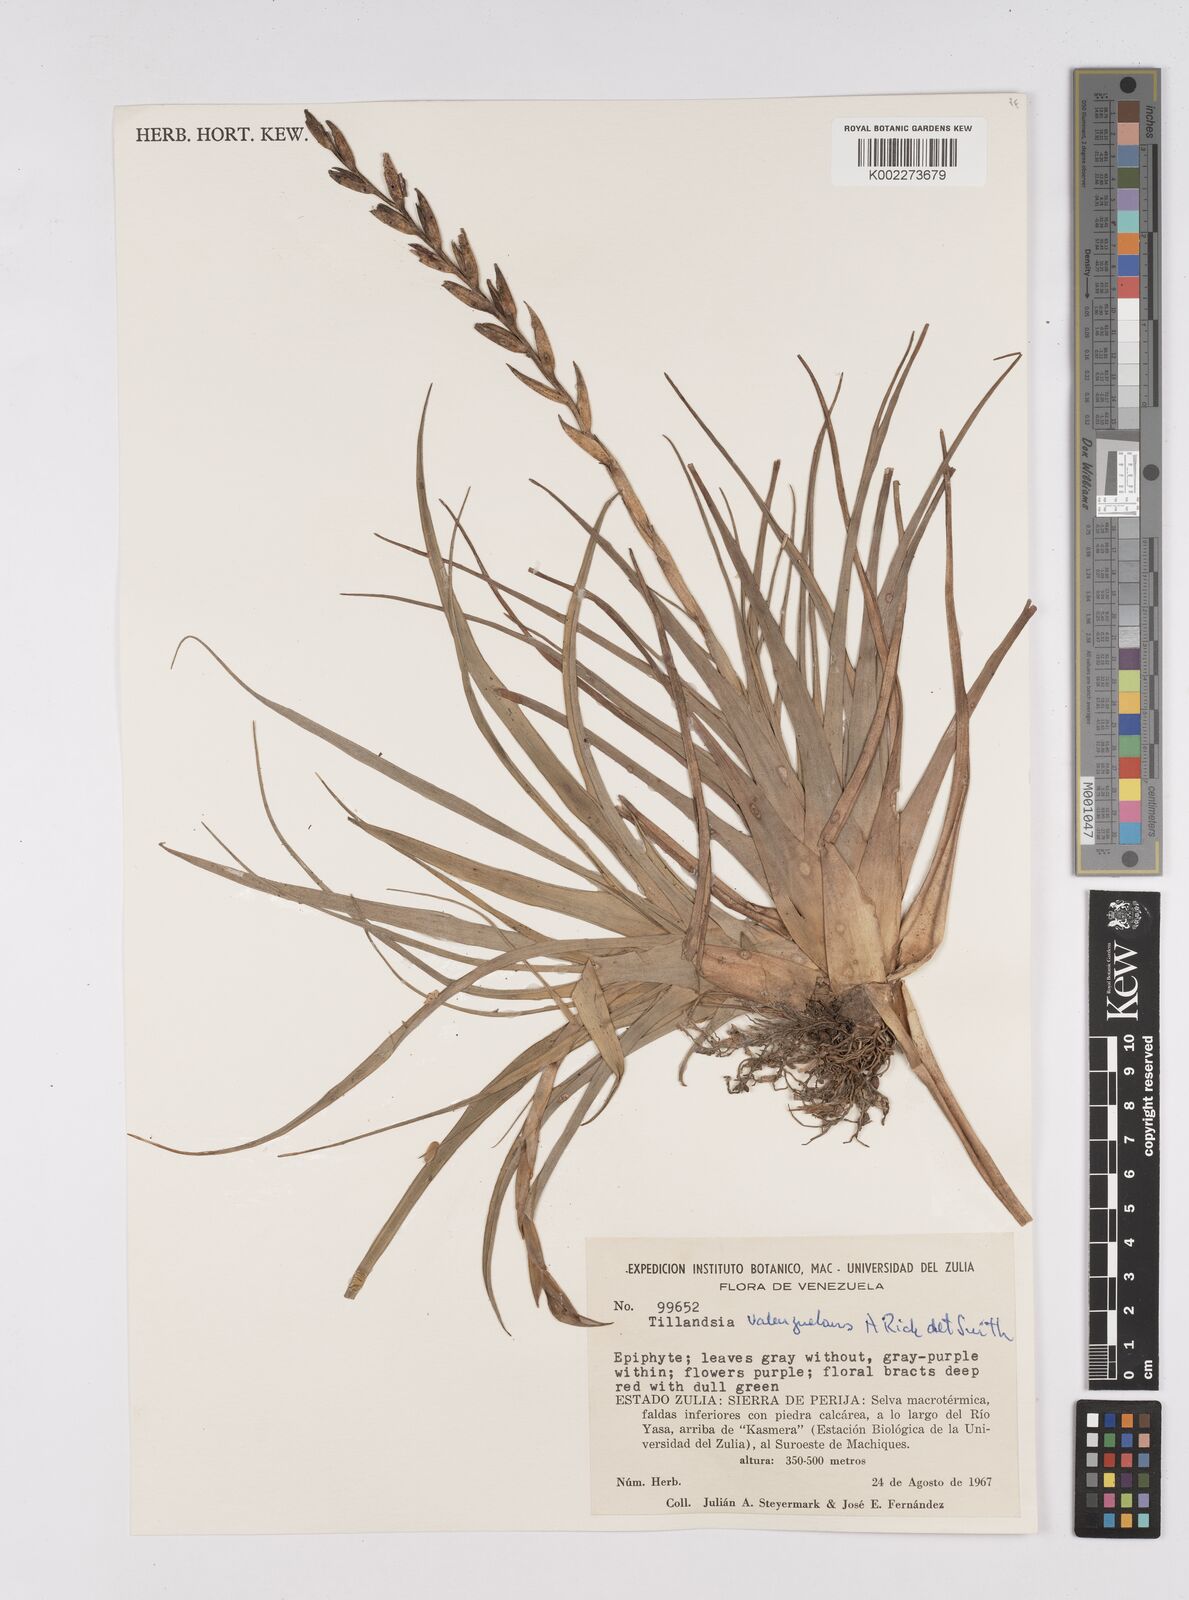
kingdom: Plantae
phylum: Tracheophyta
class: Liliopsida
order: Poales
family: Bromeliaceae
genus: Tillandsia
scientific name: Tillandsia variabilis
